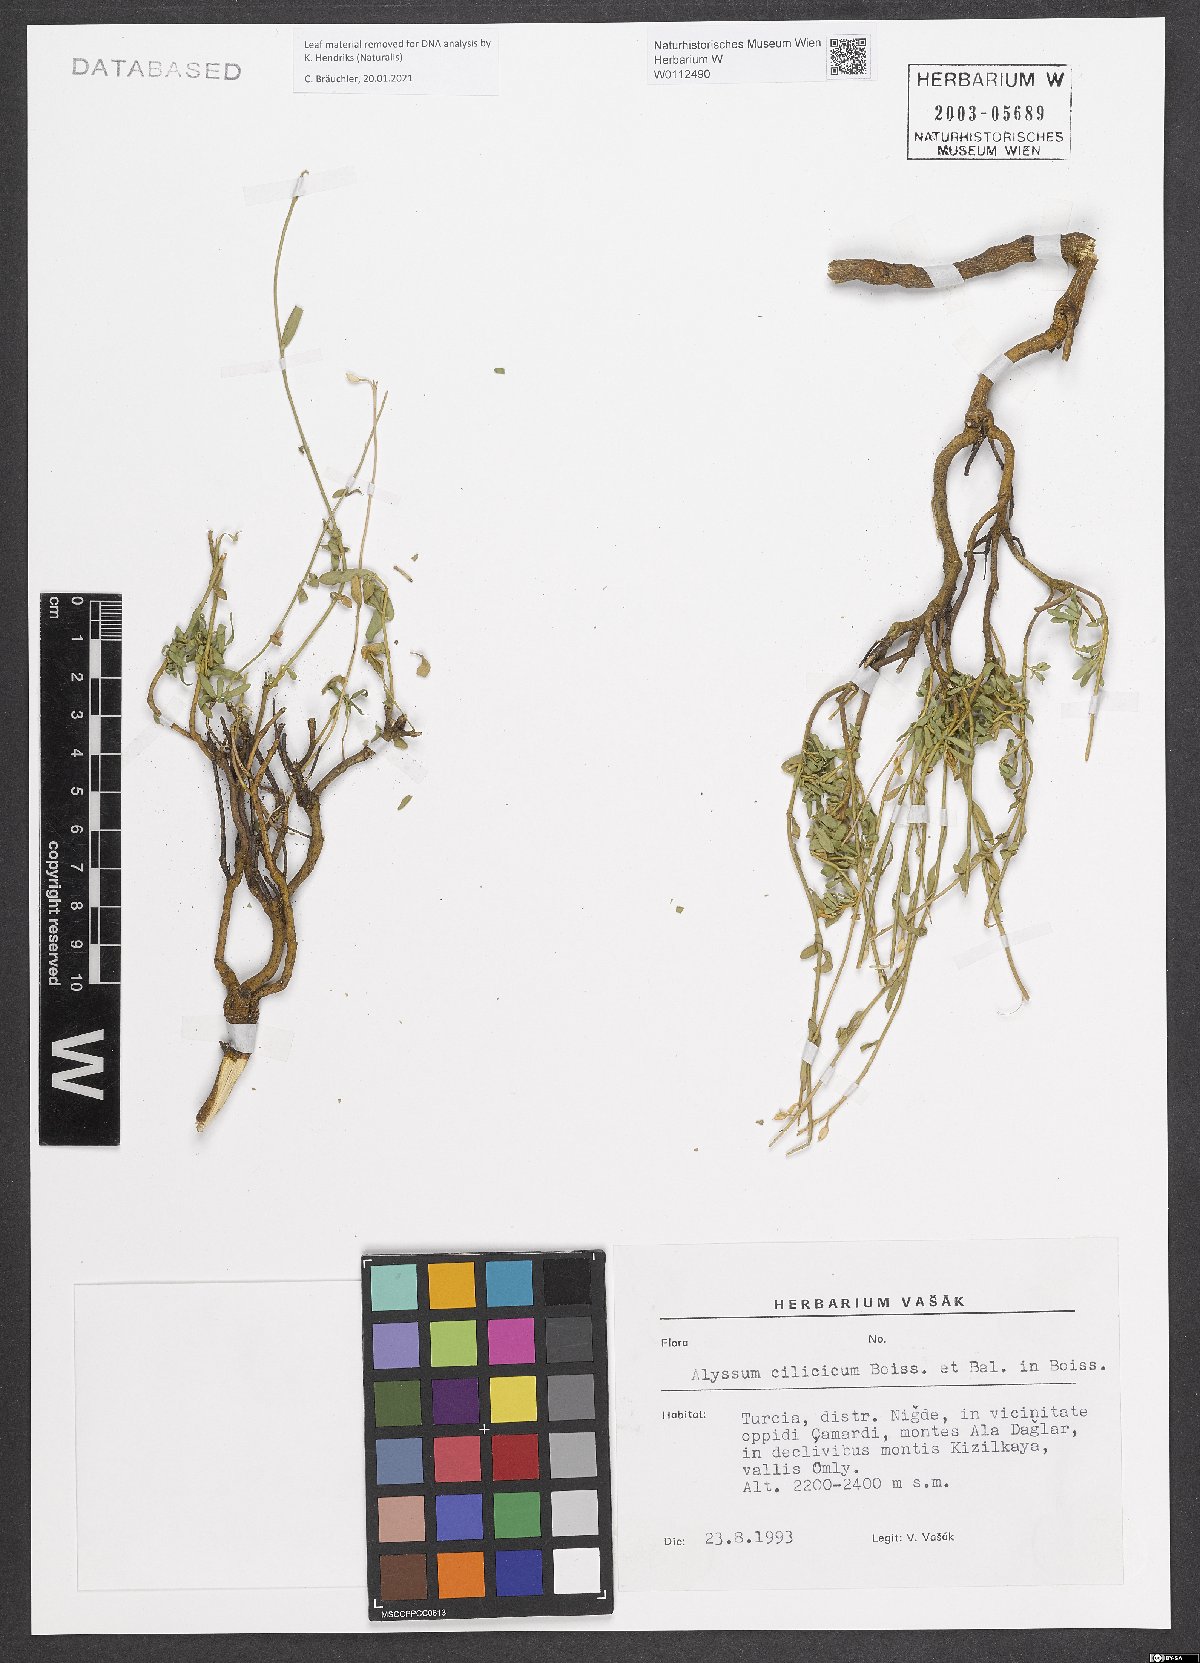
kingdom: Plantae
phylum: Tracheophyta
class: Magnoliopsida
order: Brassicales
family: Brassicaceae
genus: Odontarrhena
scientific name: Odontarrhena cilicica
